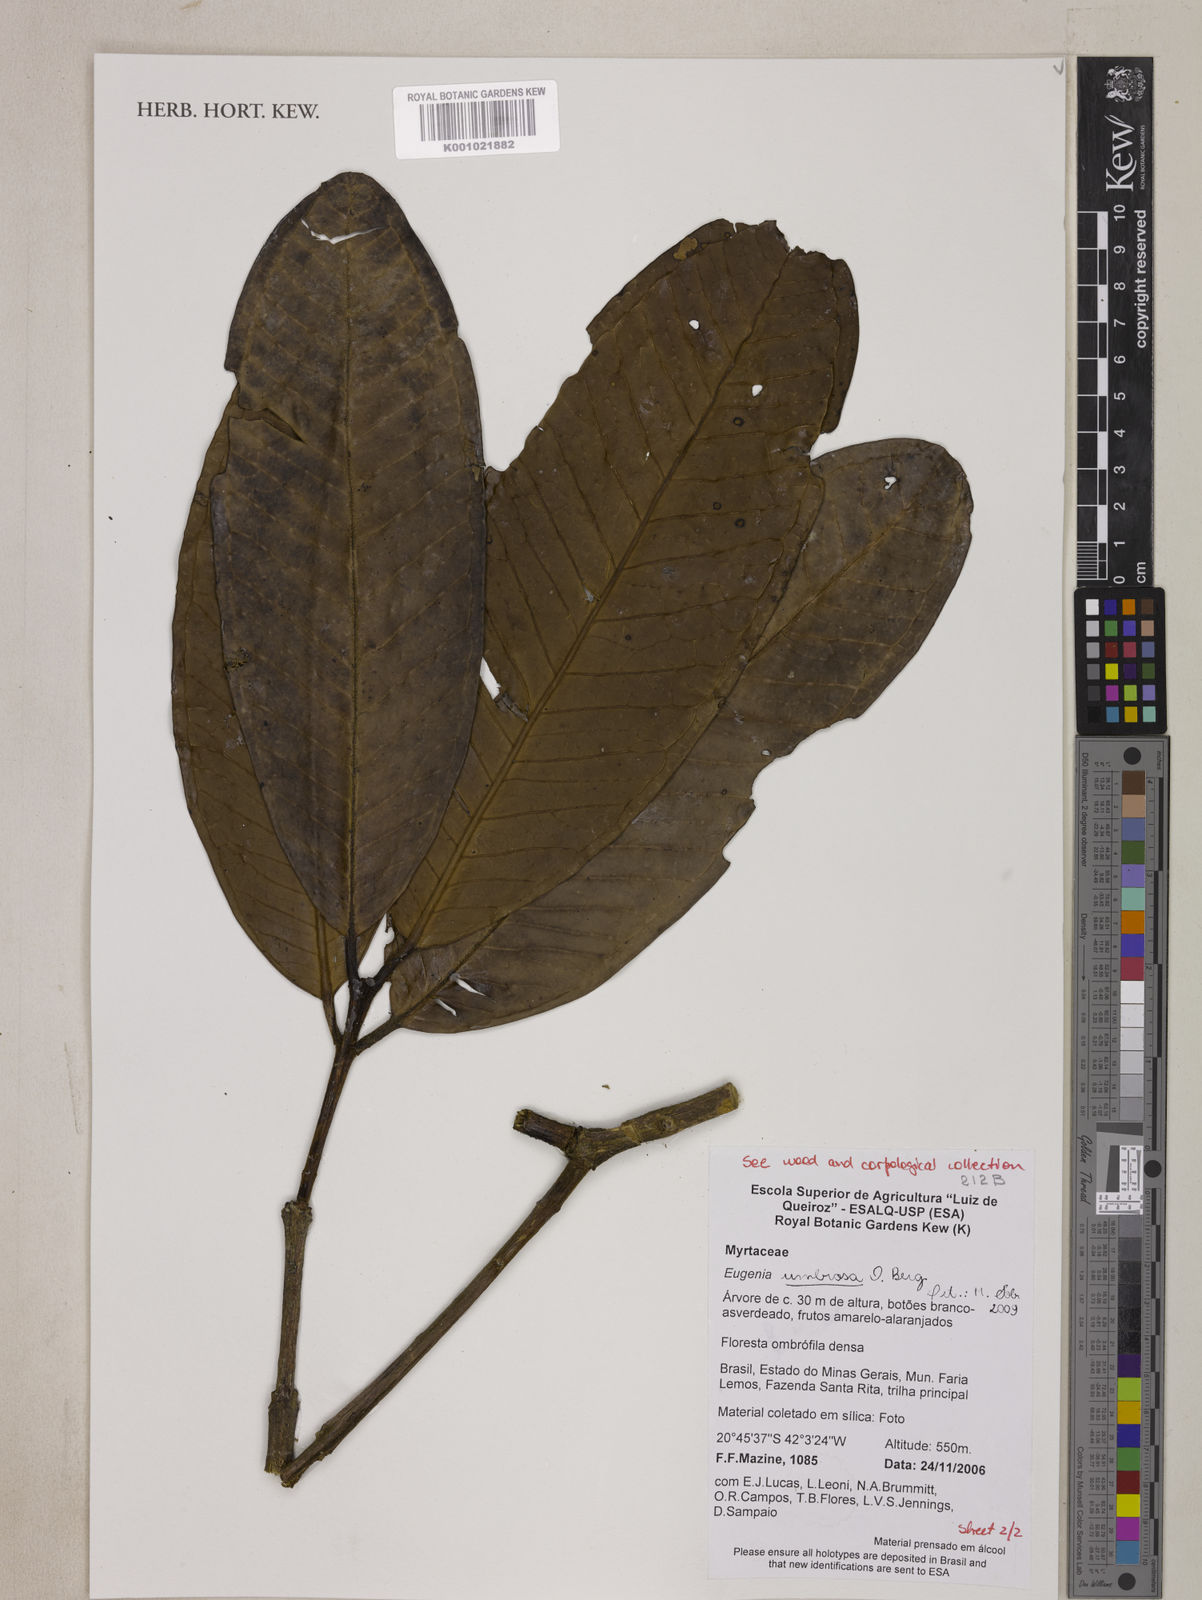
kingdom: Plantae
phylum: Tracheophyta
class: Magnoliopsida
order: Myrtales
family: Myrtaceae
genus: Eugenia
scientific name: Eugenia umbrosa
